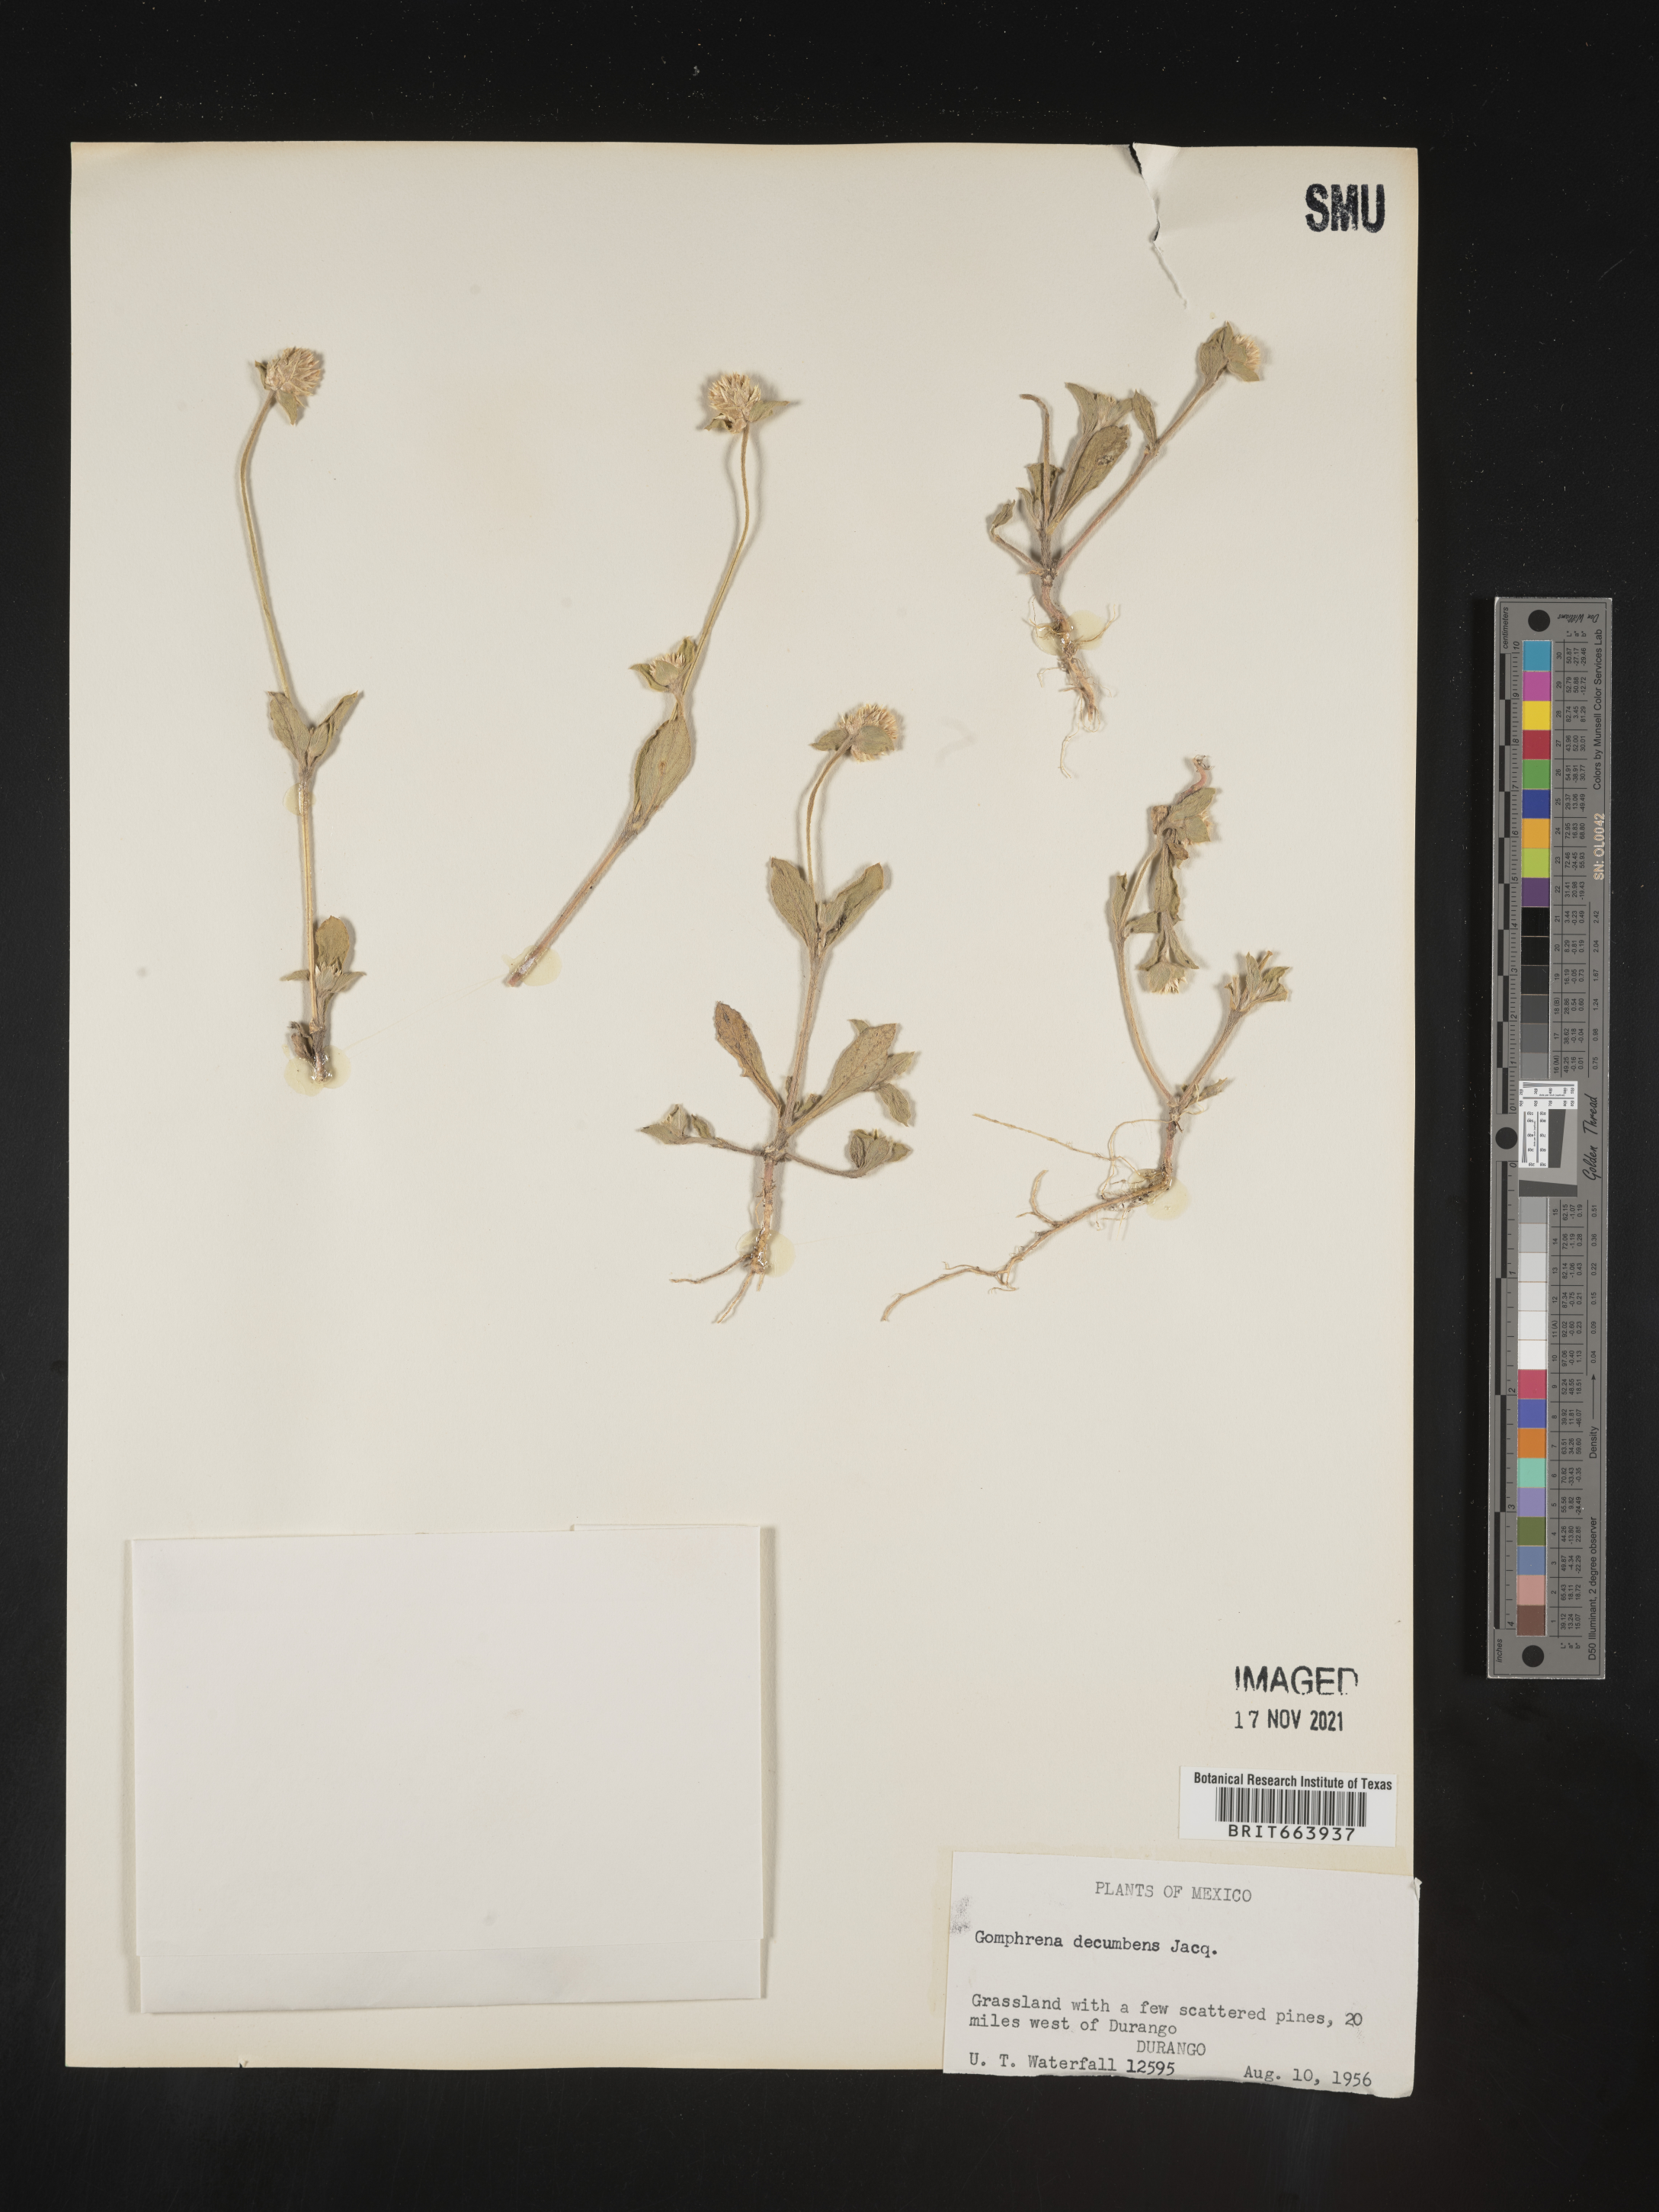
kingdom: Plantae
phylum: Tracheophyta
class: Magnoliopsida
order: Caryophyllales
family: Amaranthaceae
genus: Gomphrena
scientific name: Gomphrena
